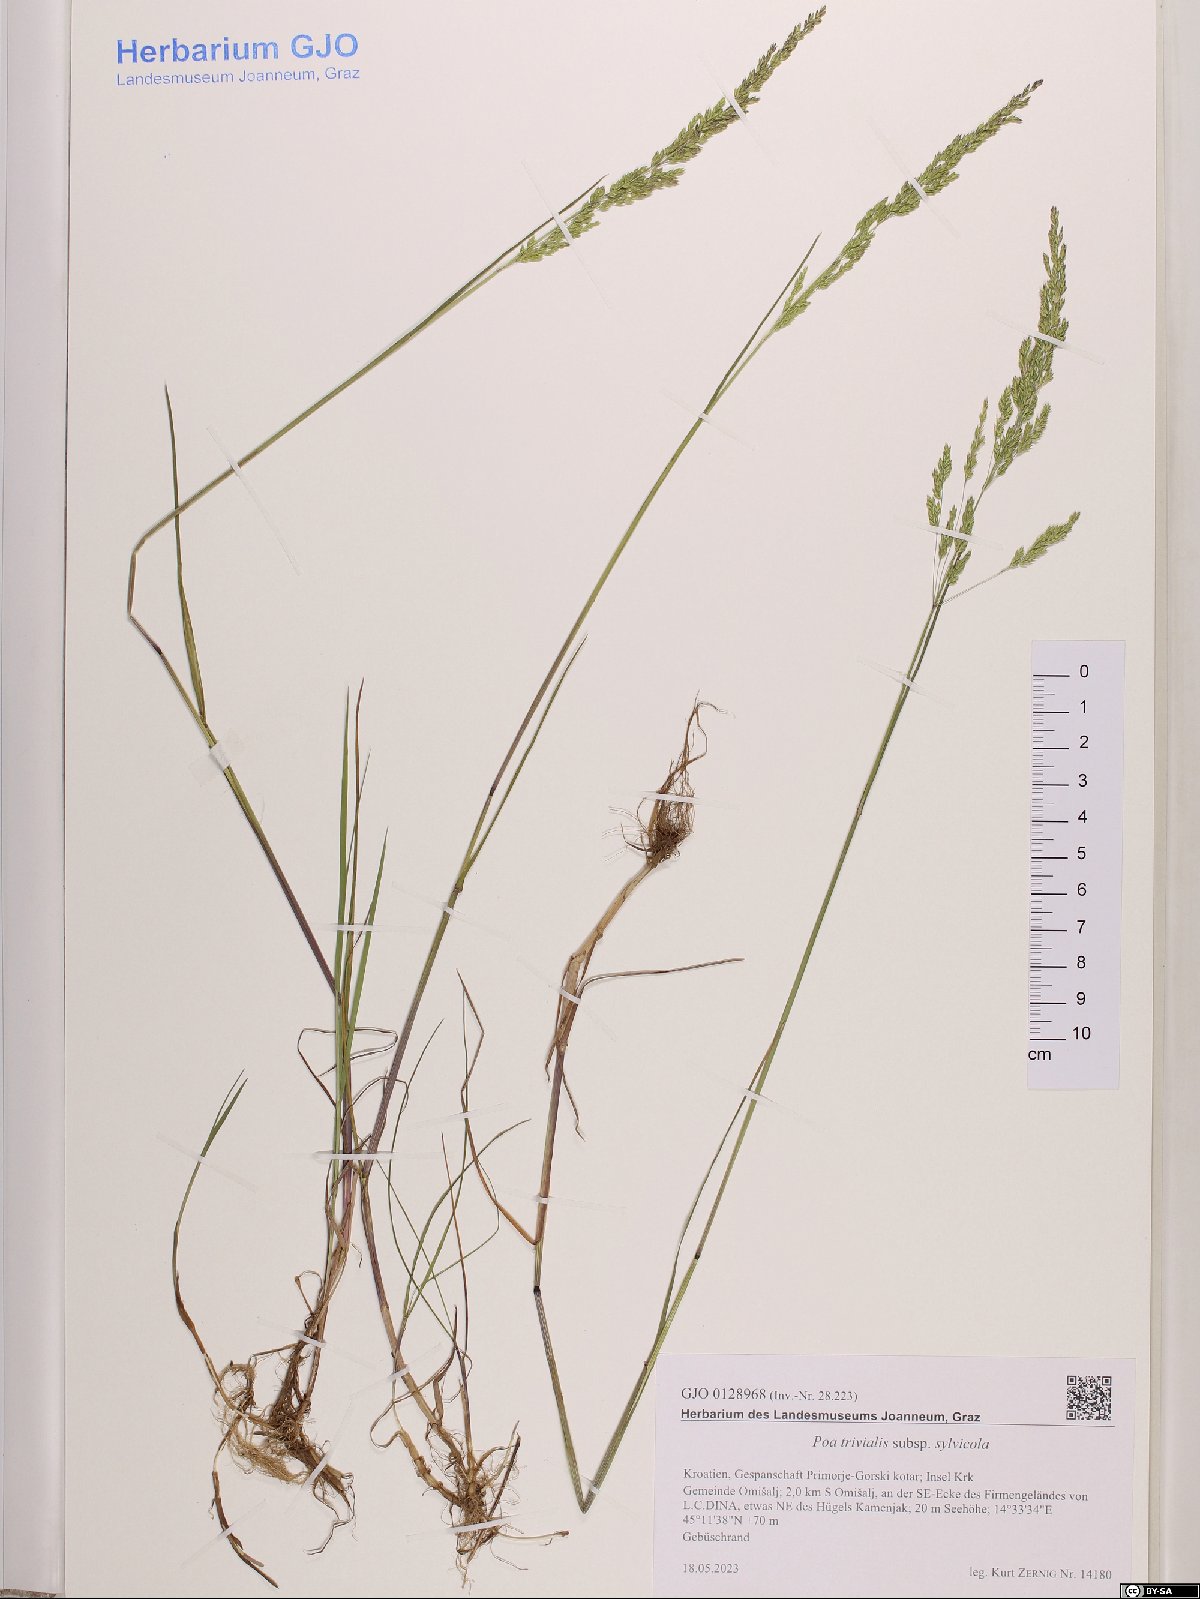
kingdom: Plantae
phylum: Tracheophyta
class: Liliopsida
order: Poales
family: Poaceae
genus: Poa
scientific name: Poa trivialis
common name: Rough bluegrass
